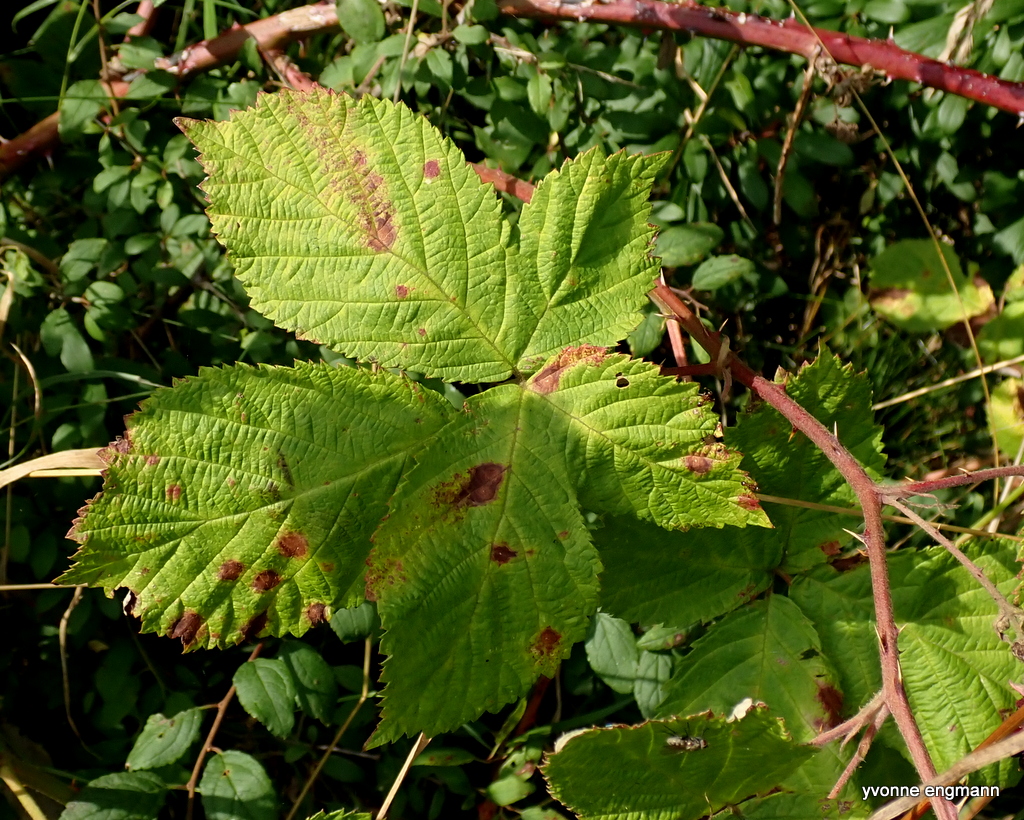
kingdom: Fungi
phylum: Basidiomycota
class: Pucciniomycetes
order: Pucciniales
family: Phragmidiaceae
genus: Phragmidium
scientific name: Phragmidium violaceum
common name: violet flercellerust
